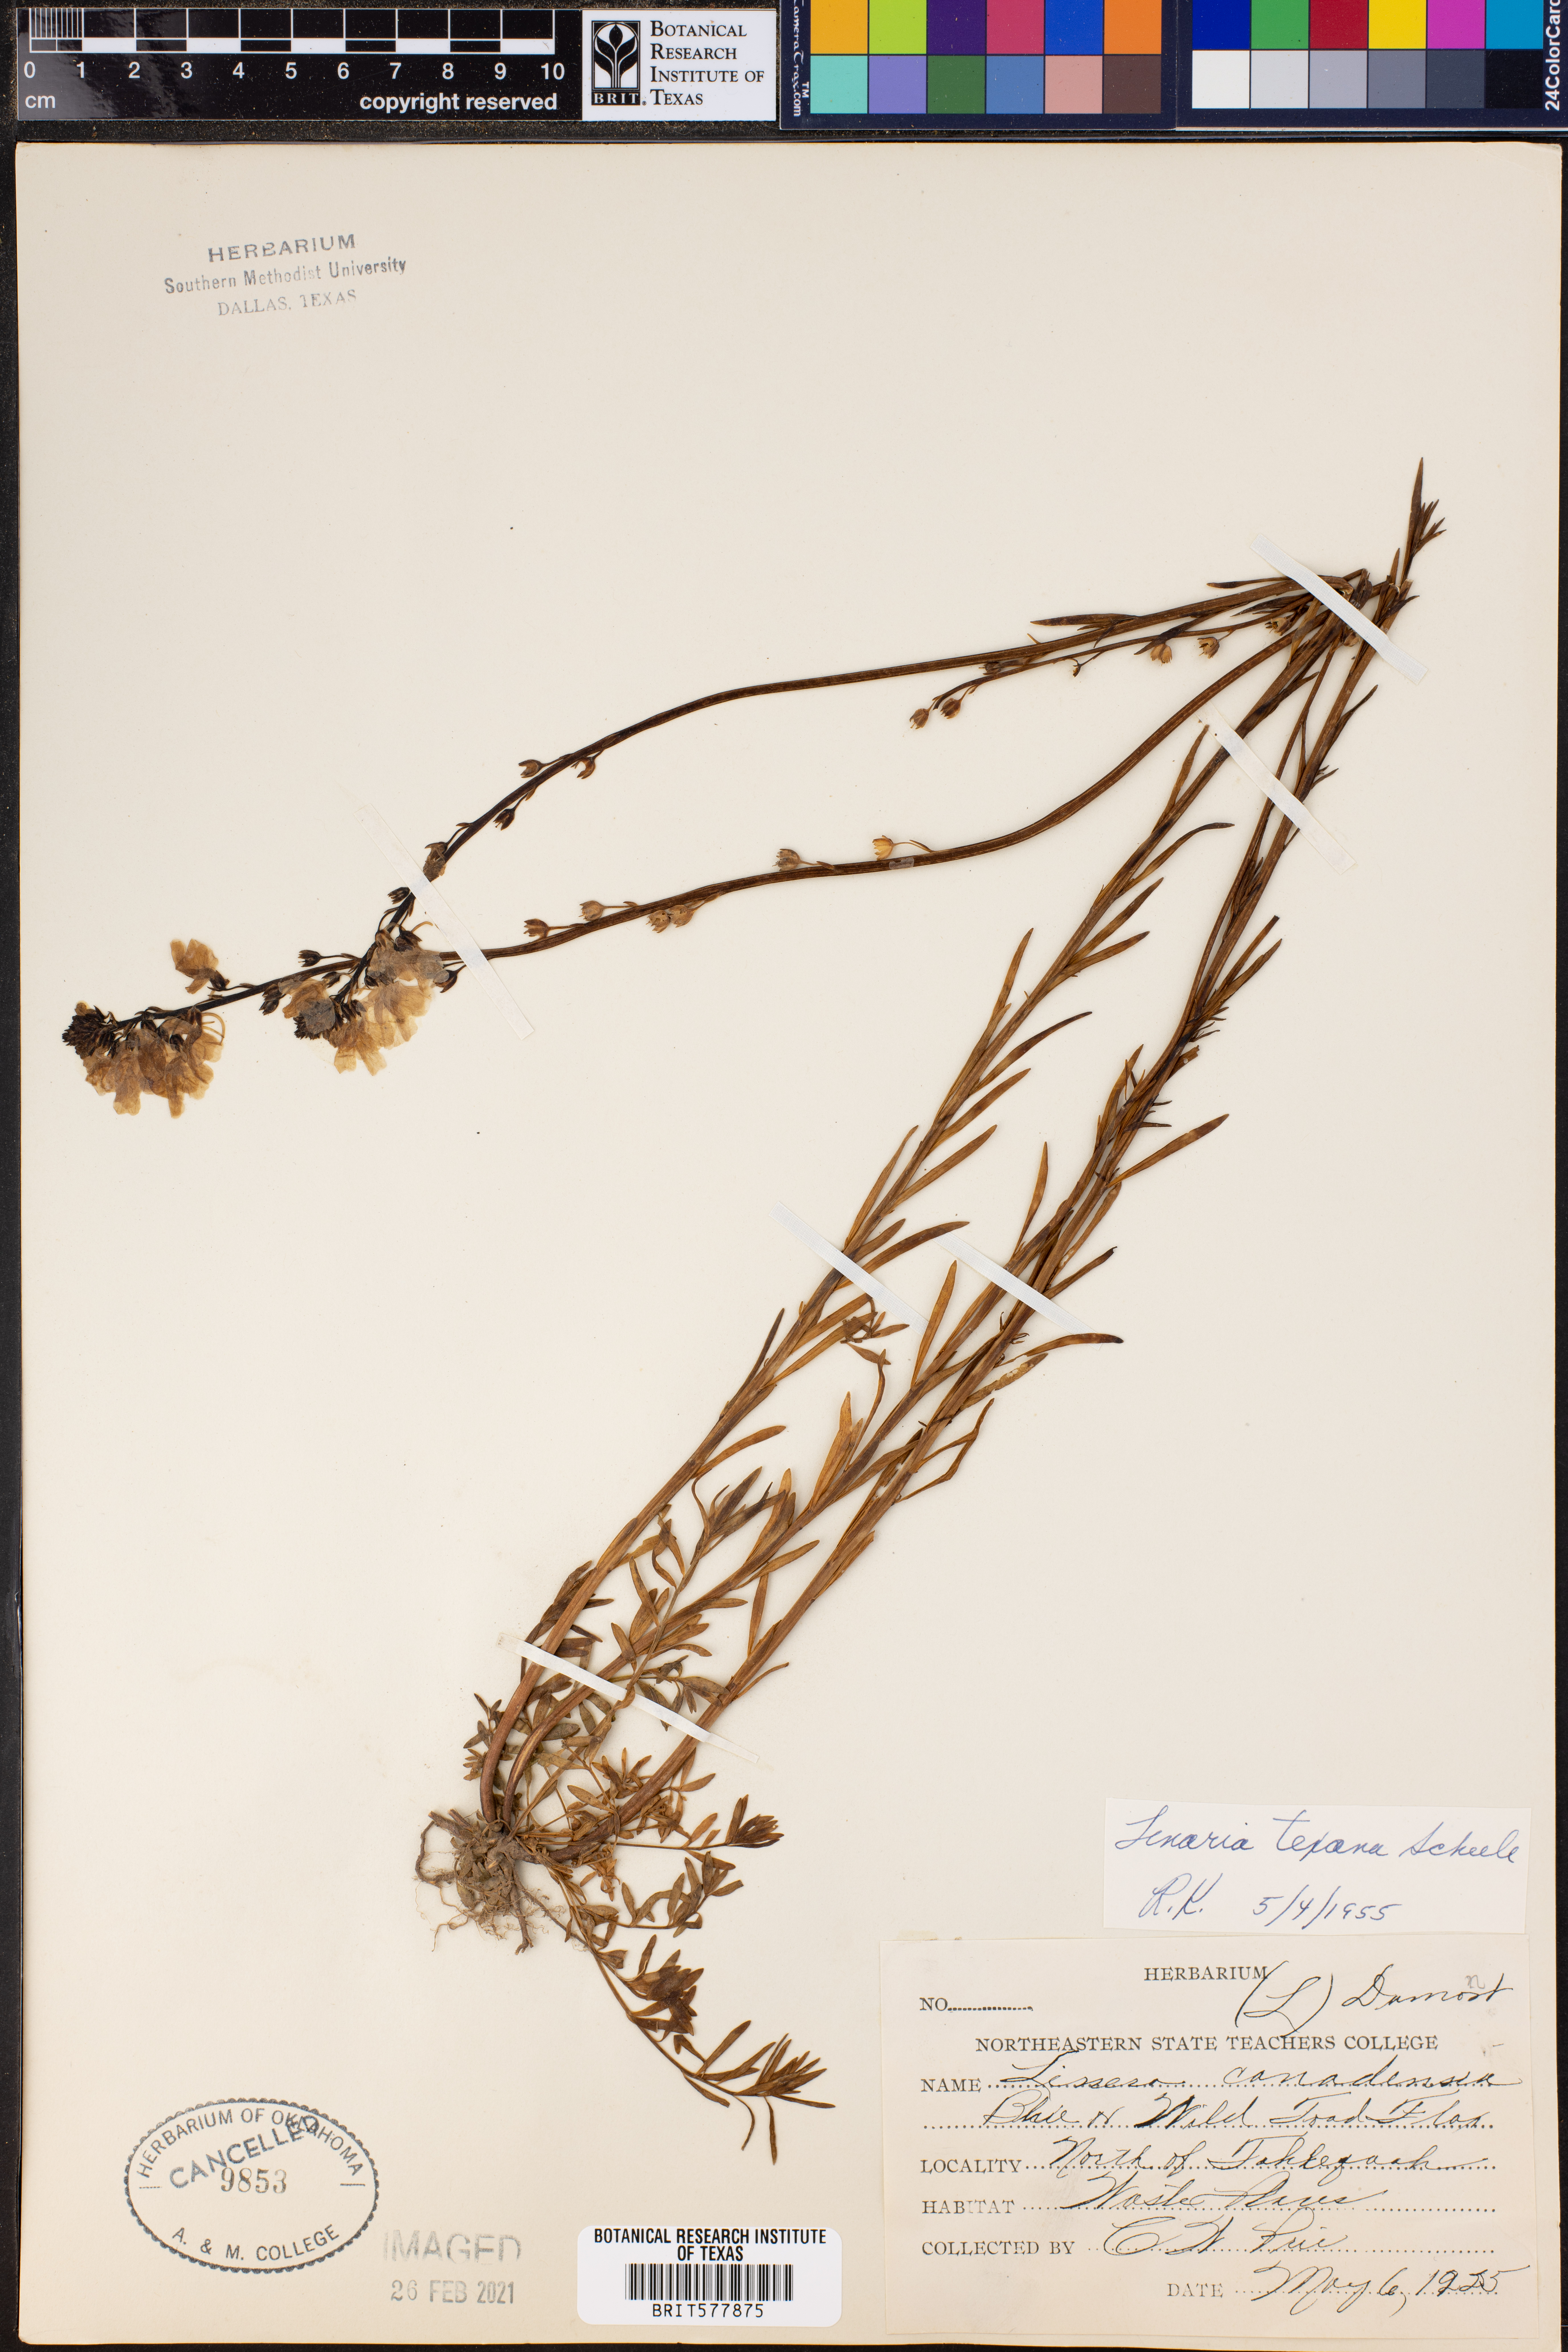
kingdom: Plantae
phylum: Tracheophyta
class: Magnoliopsida
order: Lamiales
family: Plantaginaceae
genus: Nuttallanthus
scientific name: Nuttallanthus texanus
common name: Texas toadflax
